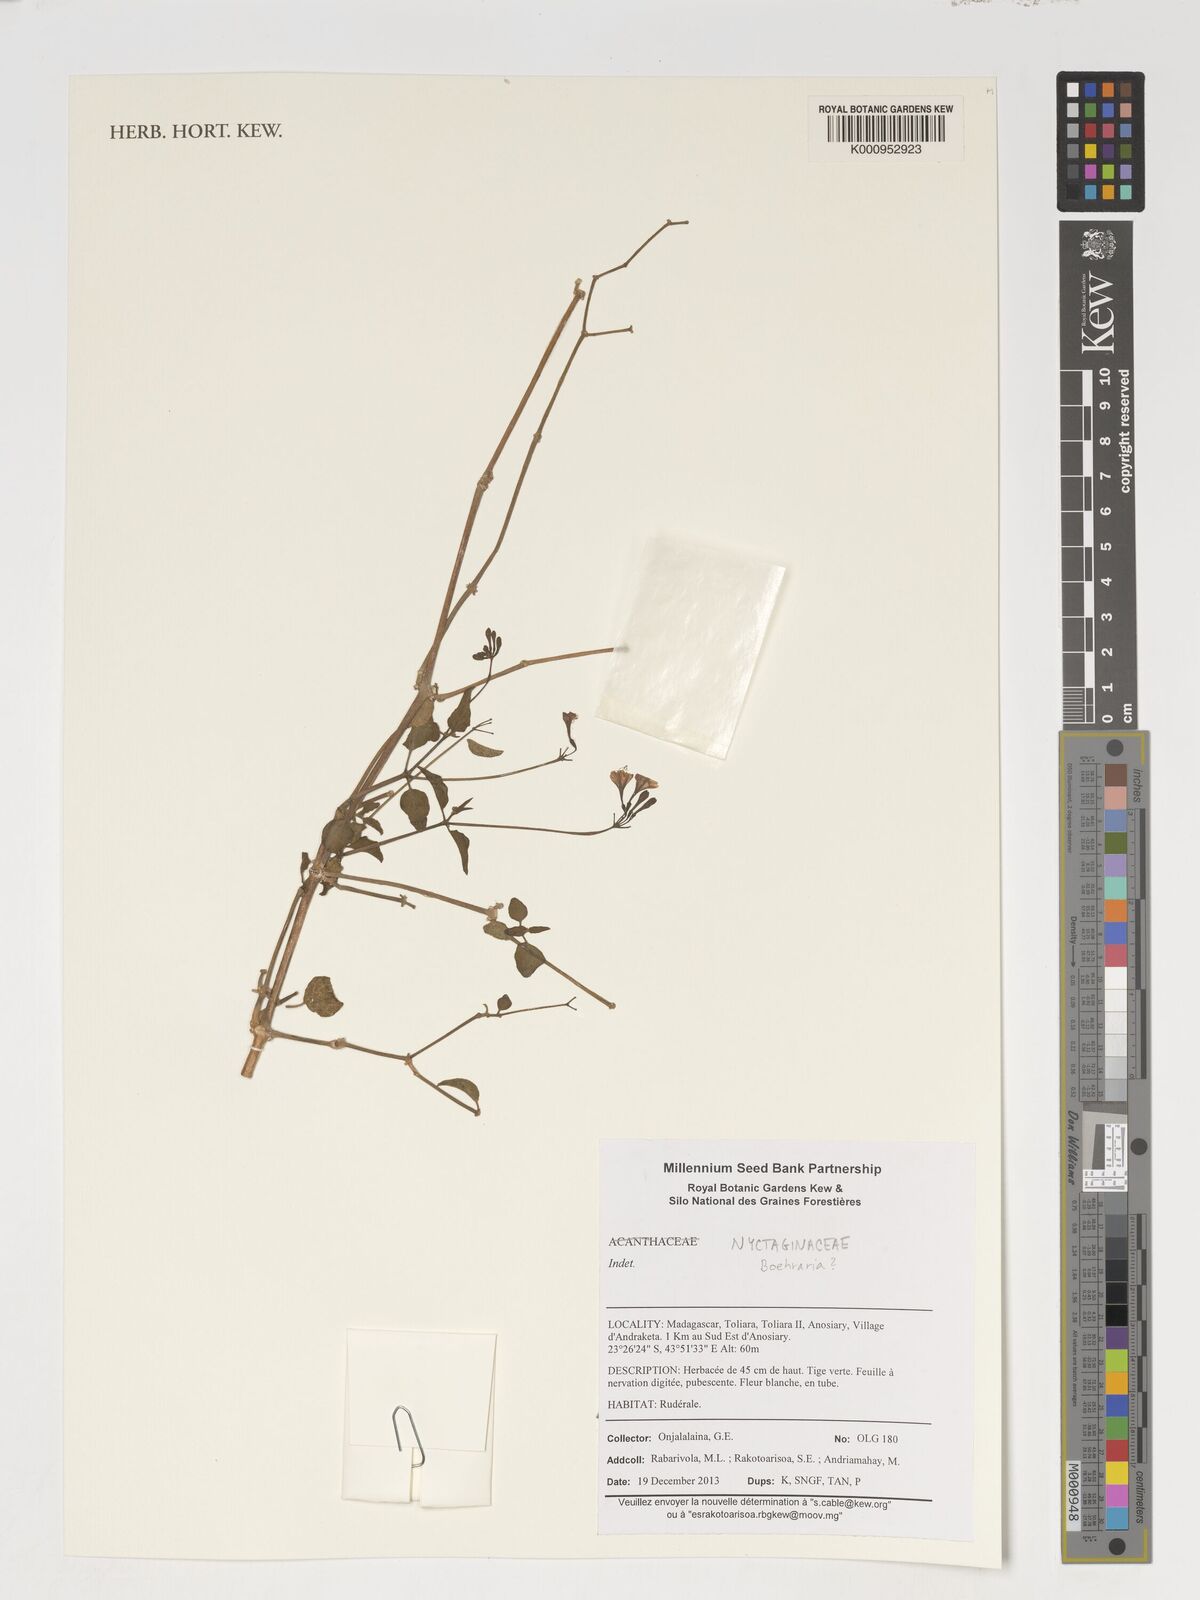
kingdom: Plantae
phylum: Tracheophyta
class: Magnoliopsida
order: Caryophyllales
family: Nyctaginaceae
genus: Boerhavia
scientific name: Boerhavia
